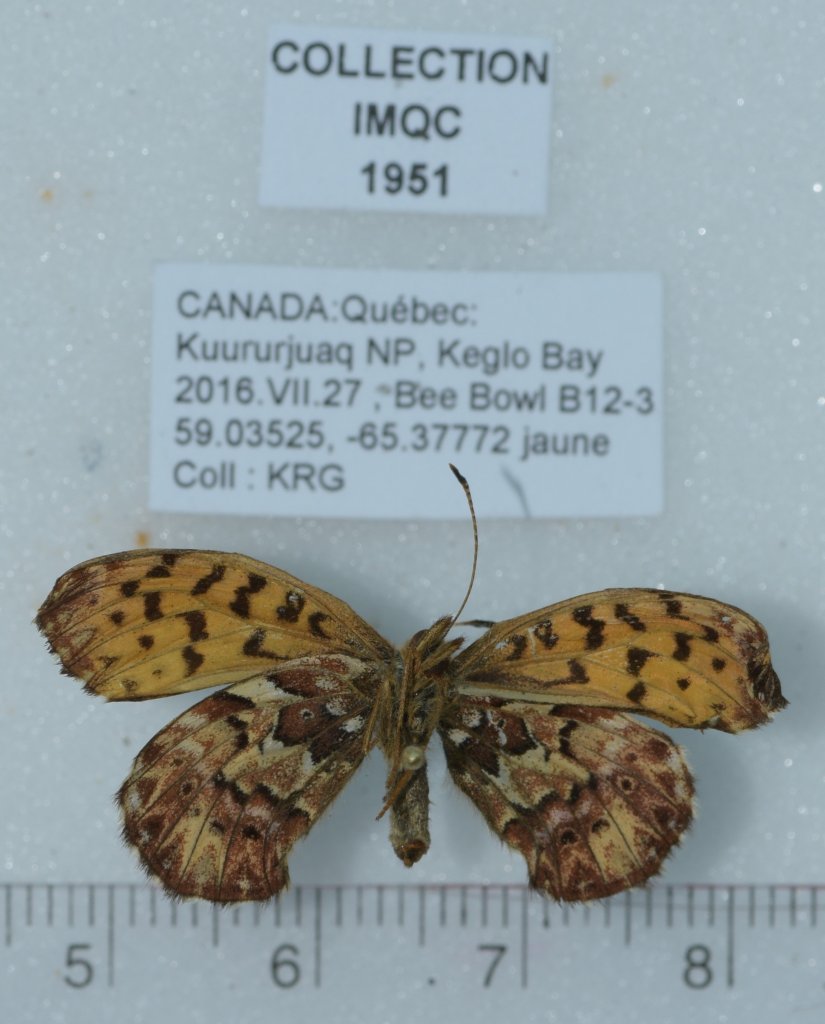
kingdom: Animalia
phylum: Arthropoda
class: Insecta
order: Lepidoptera
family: Nymphalidae
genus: Boloria
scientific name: Boloria chariclea
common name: Arctic Fritillary
